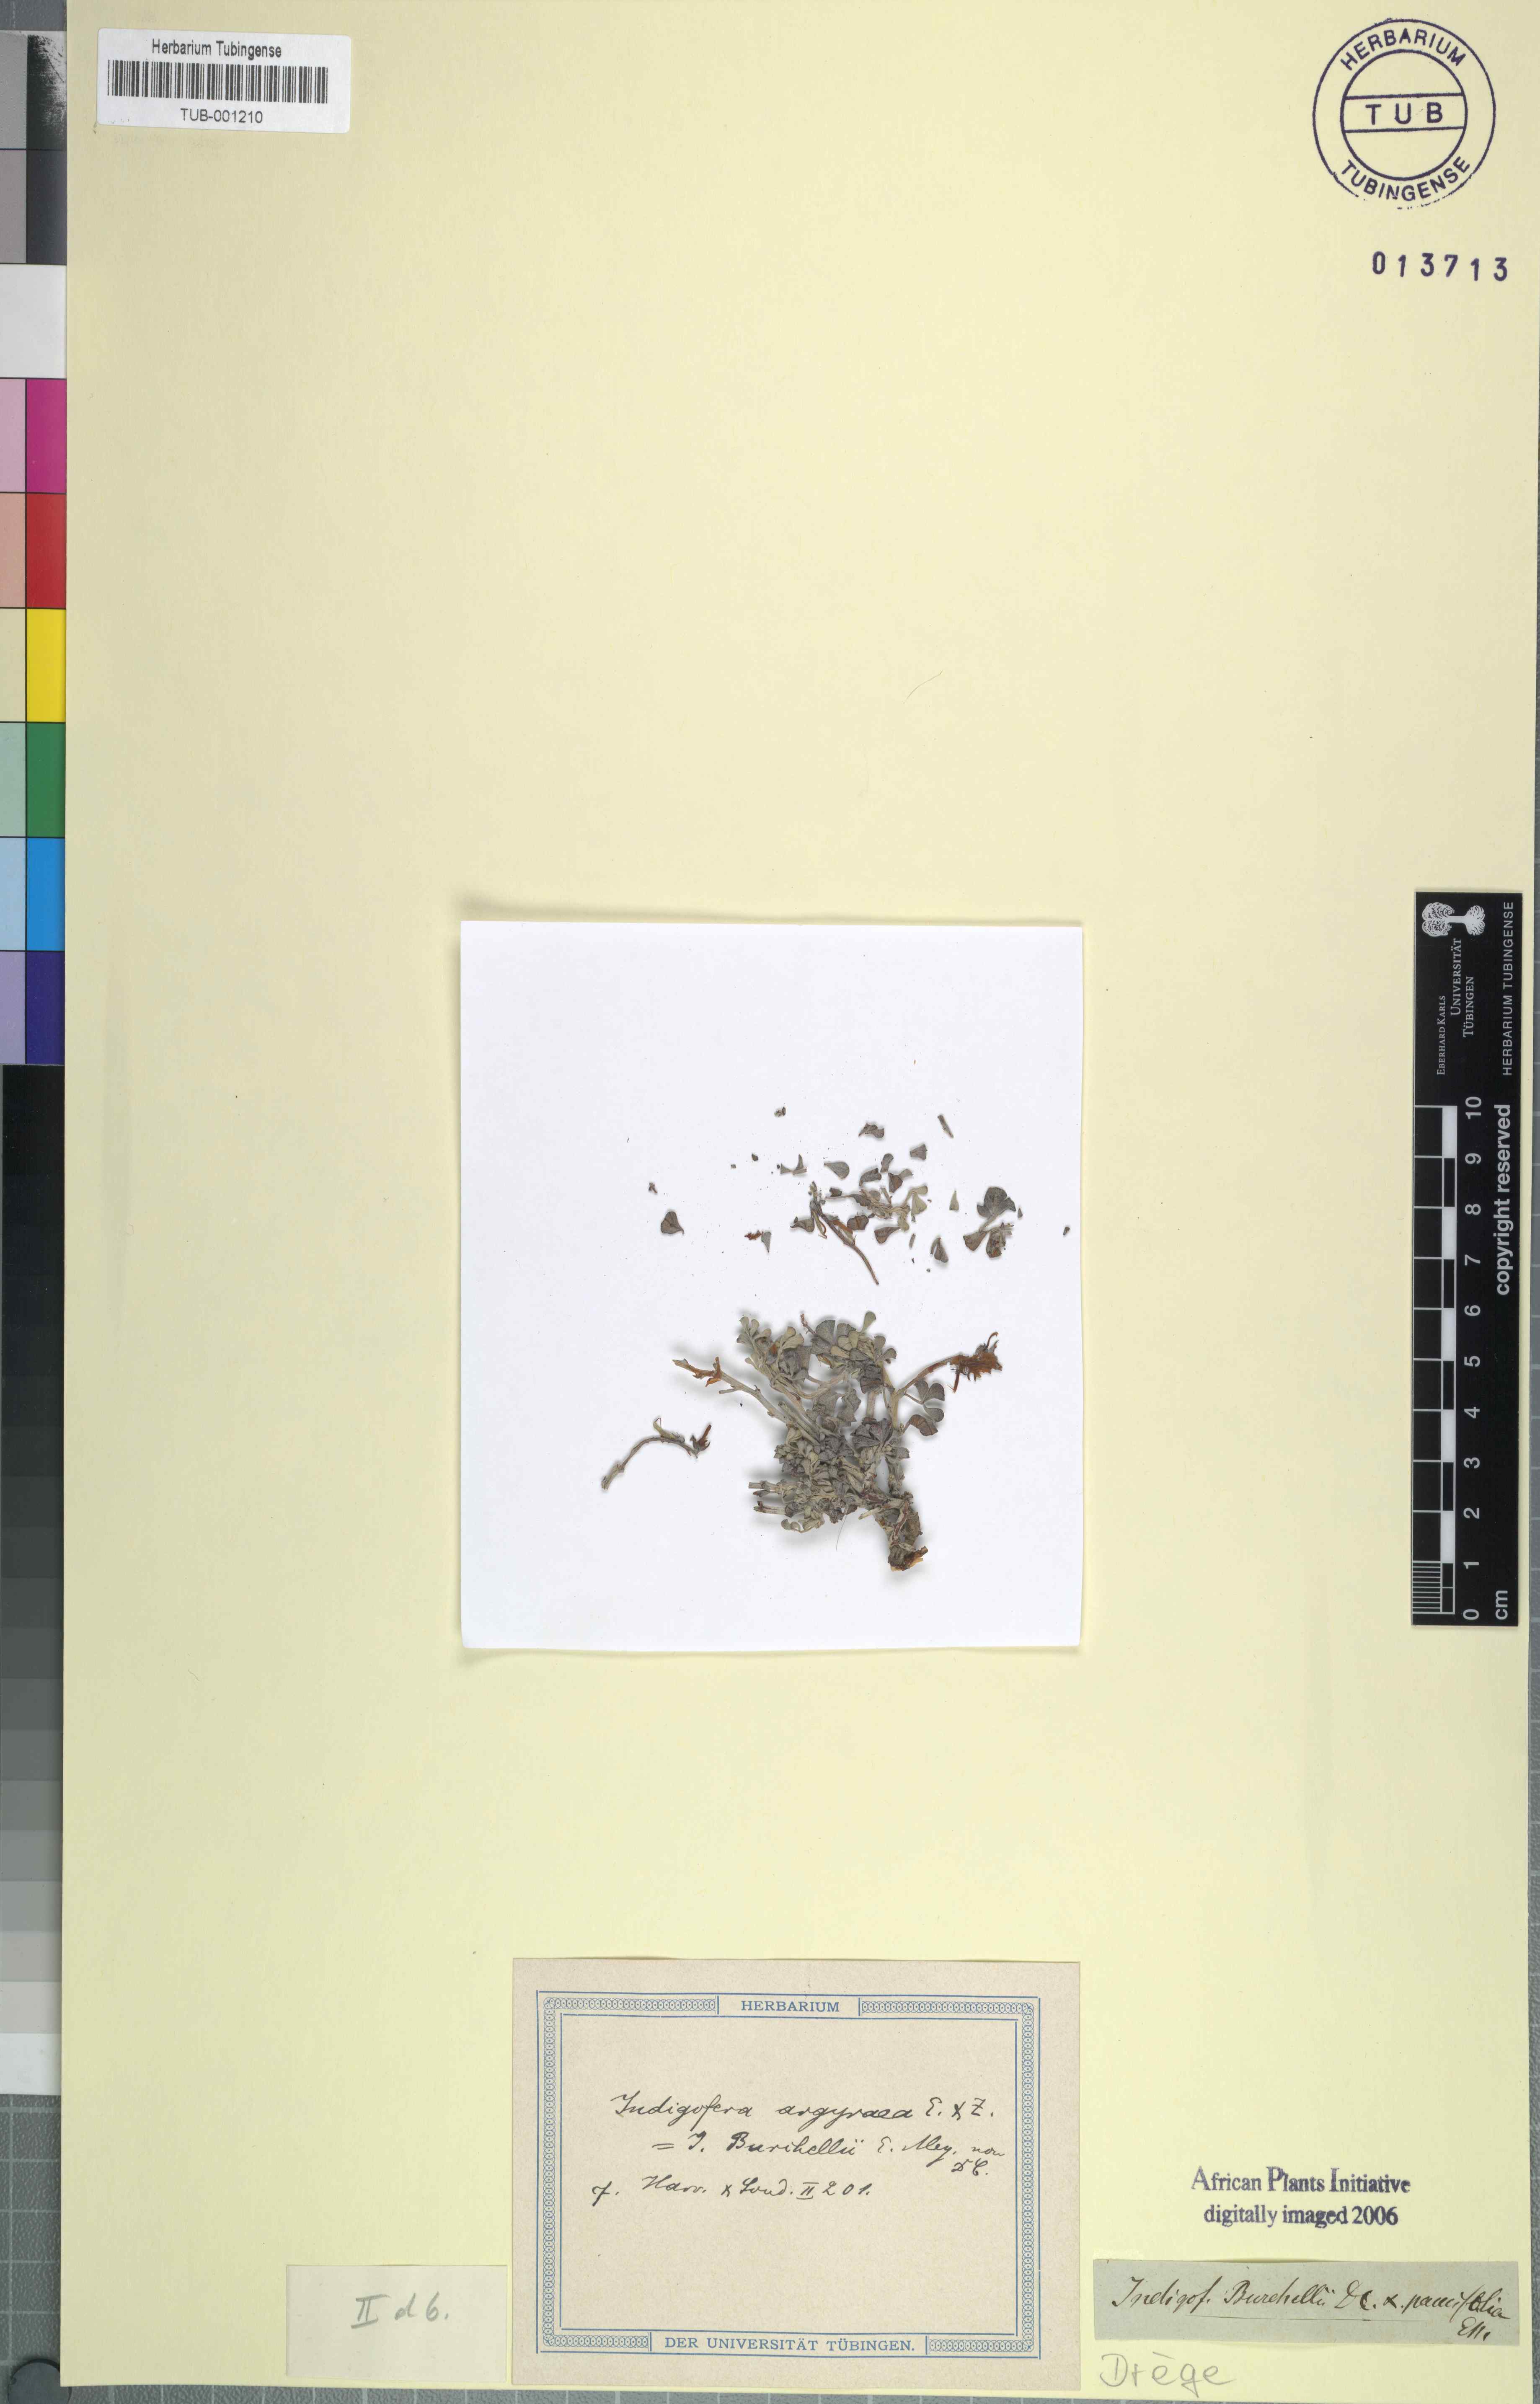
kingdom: Plantae
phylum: Tracheophyta
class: Magnoliopsida
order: Fabales
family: Fabaceae
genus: Indigofera
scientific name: Indigofera burchellii
